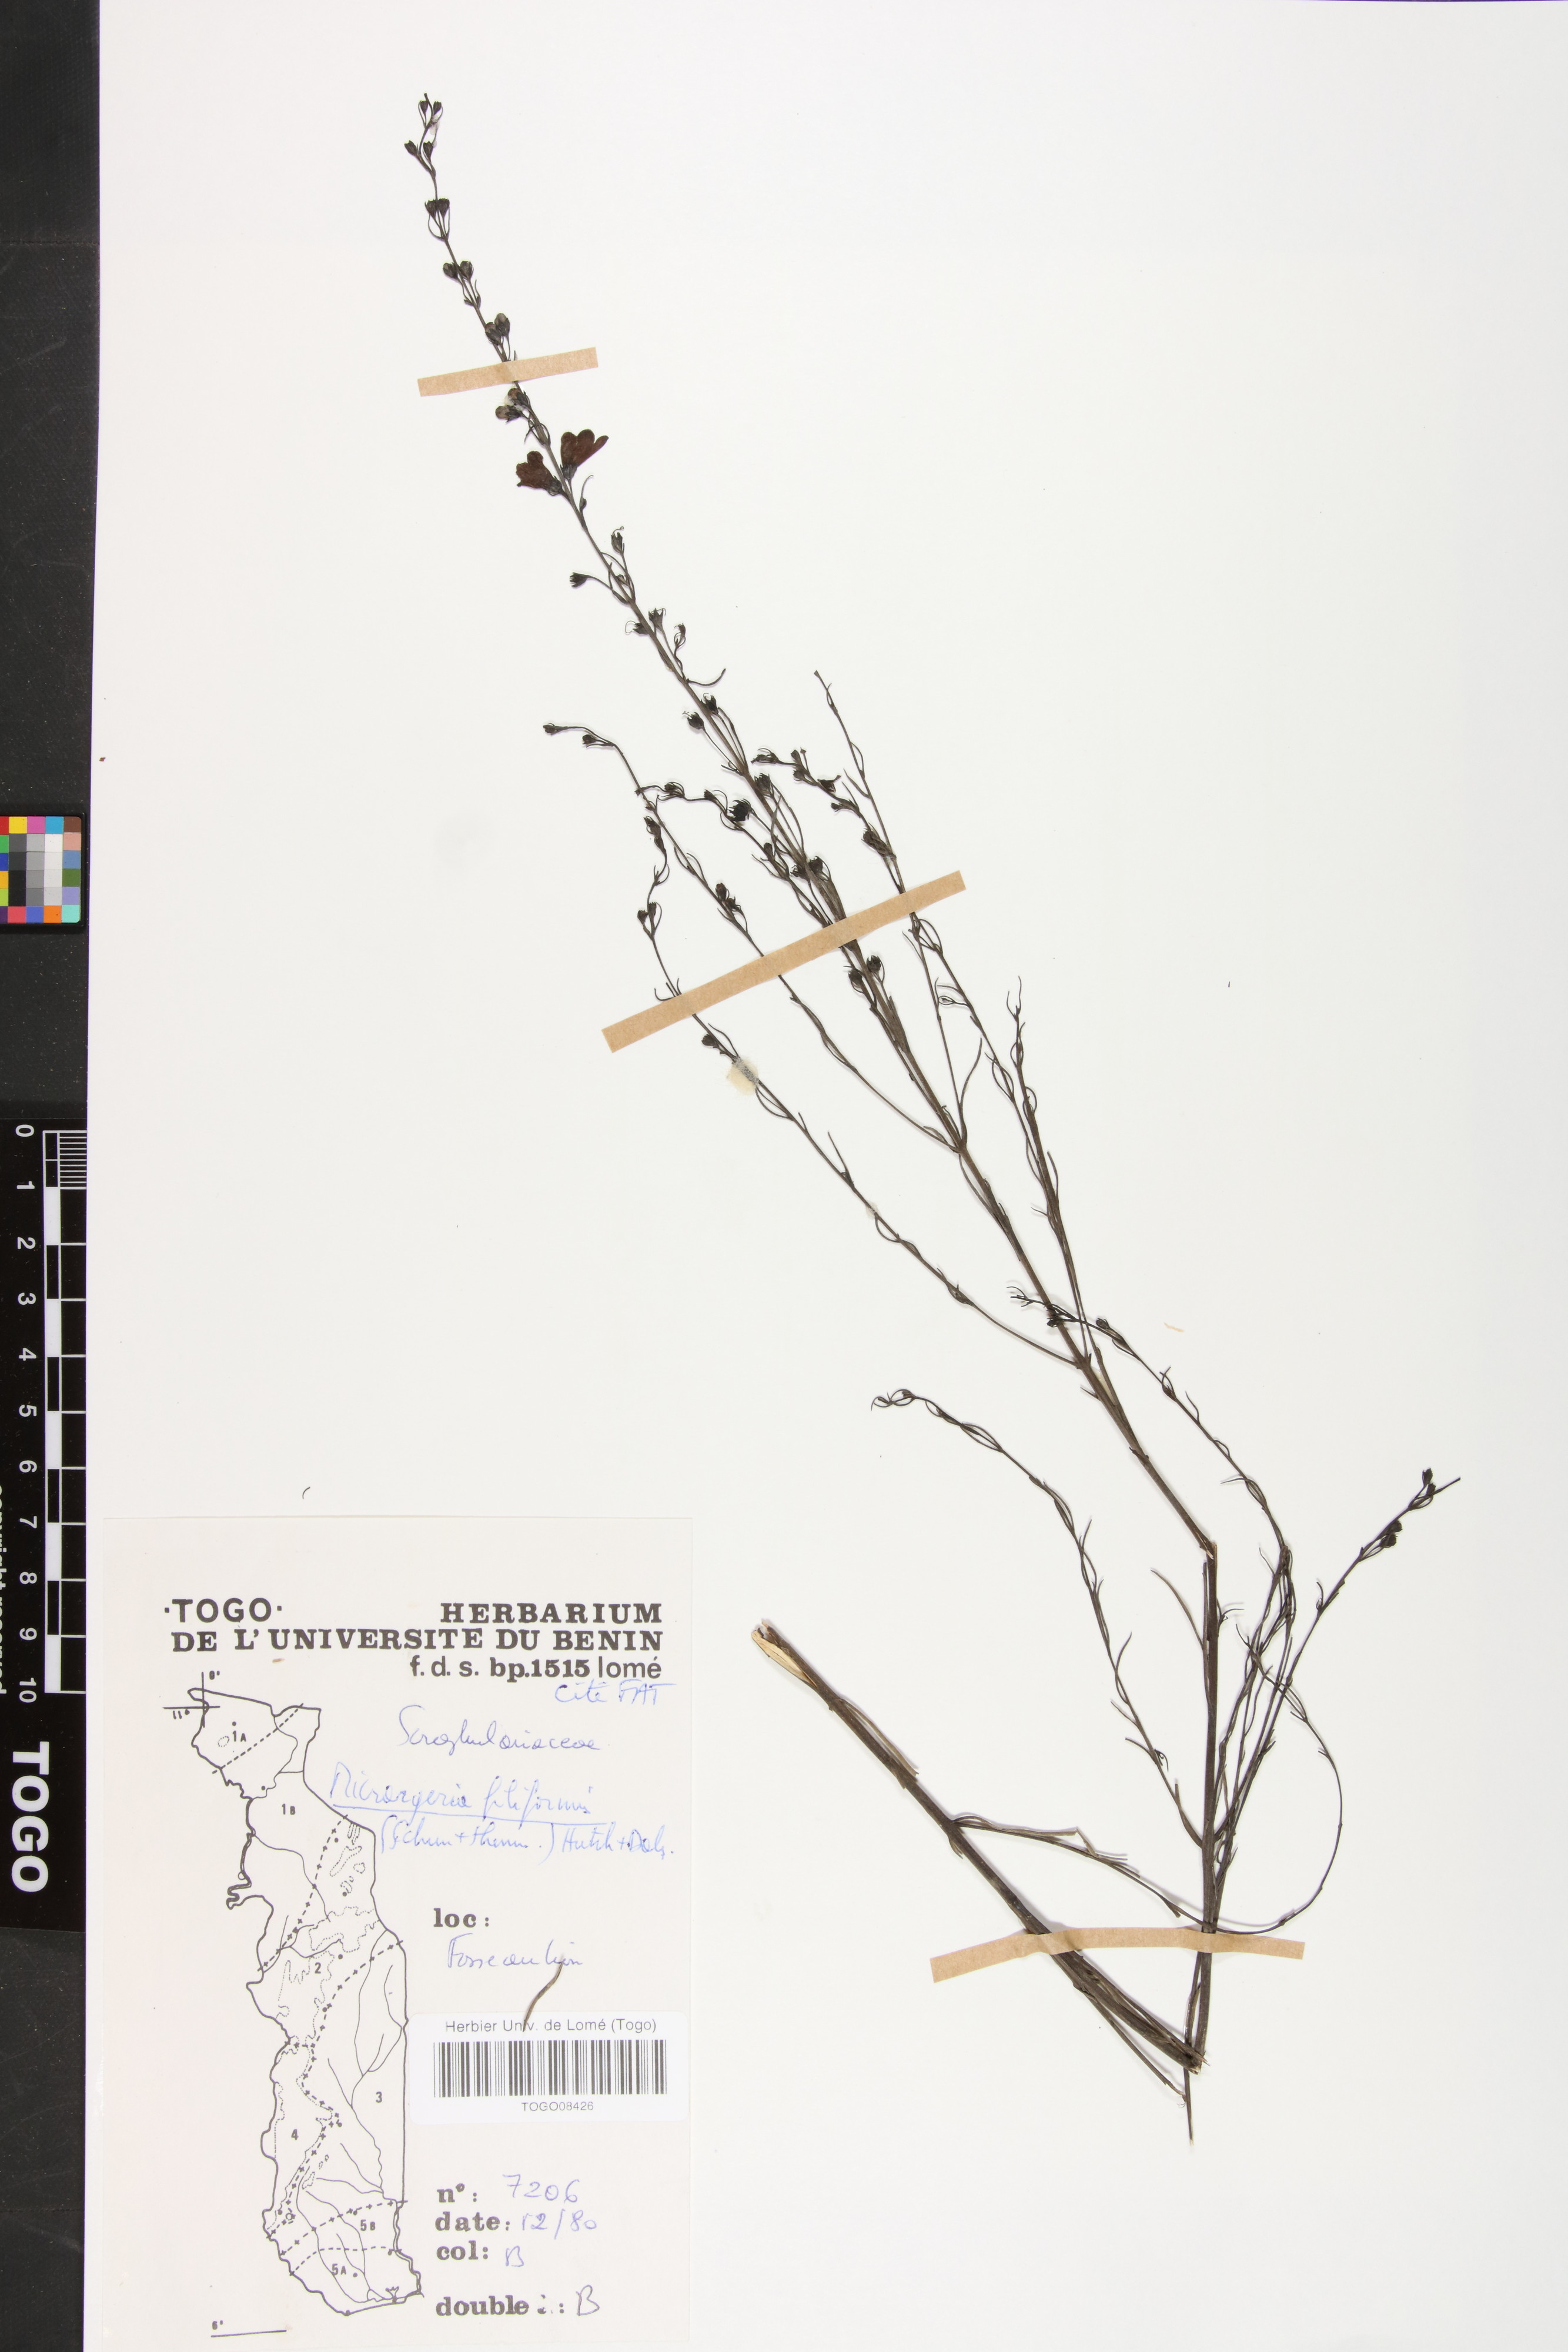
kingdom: Plantae
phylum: Tracheophyta
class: Magnoliopsida
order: Lamiales
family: Orobanchaceae
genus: Micrargeria
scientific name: Micrargeria filiformis
